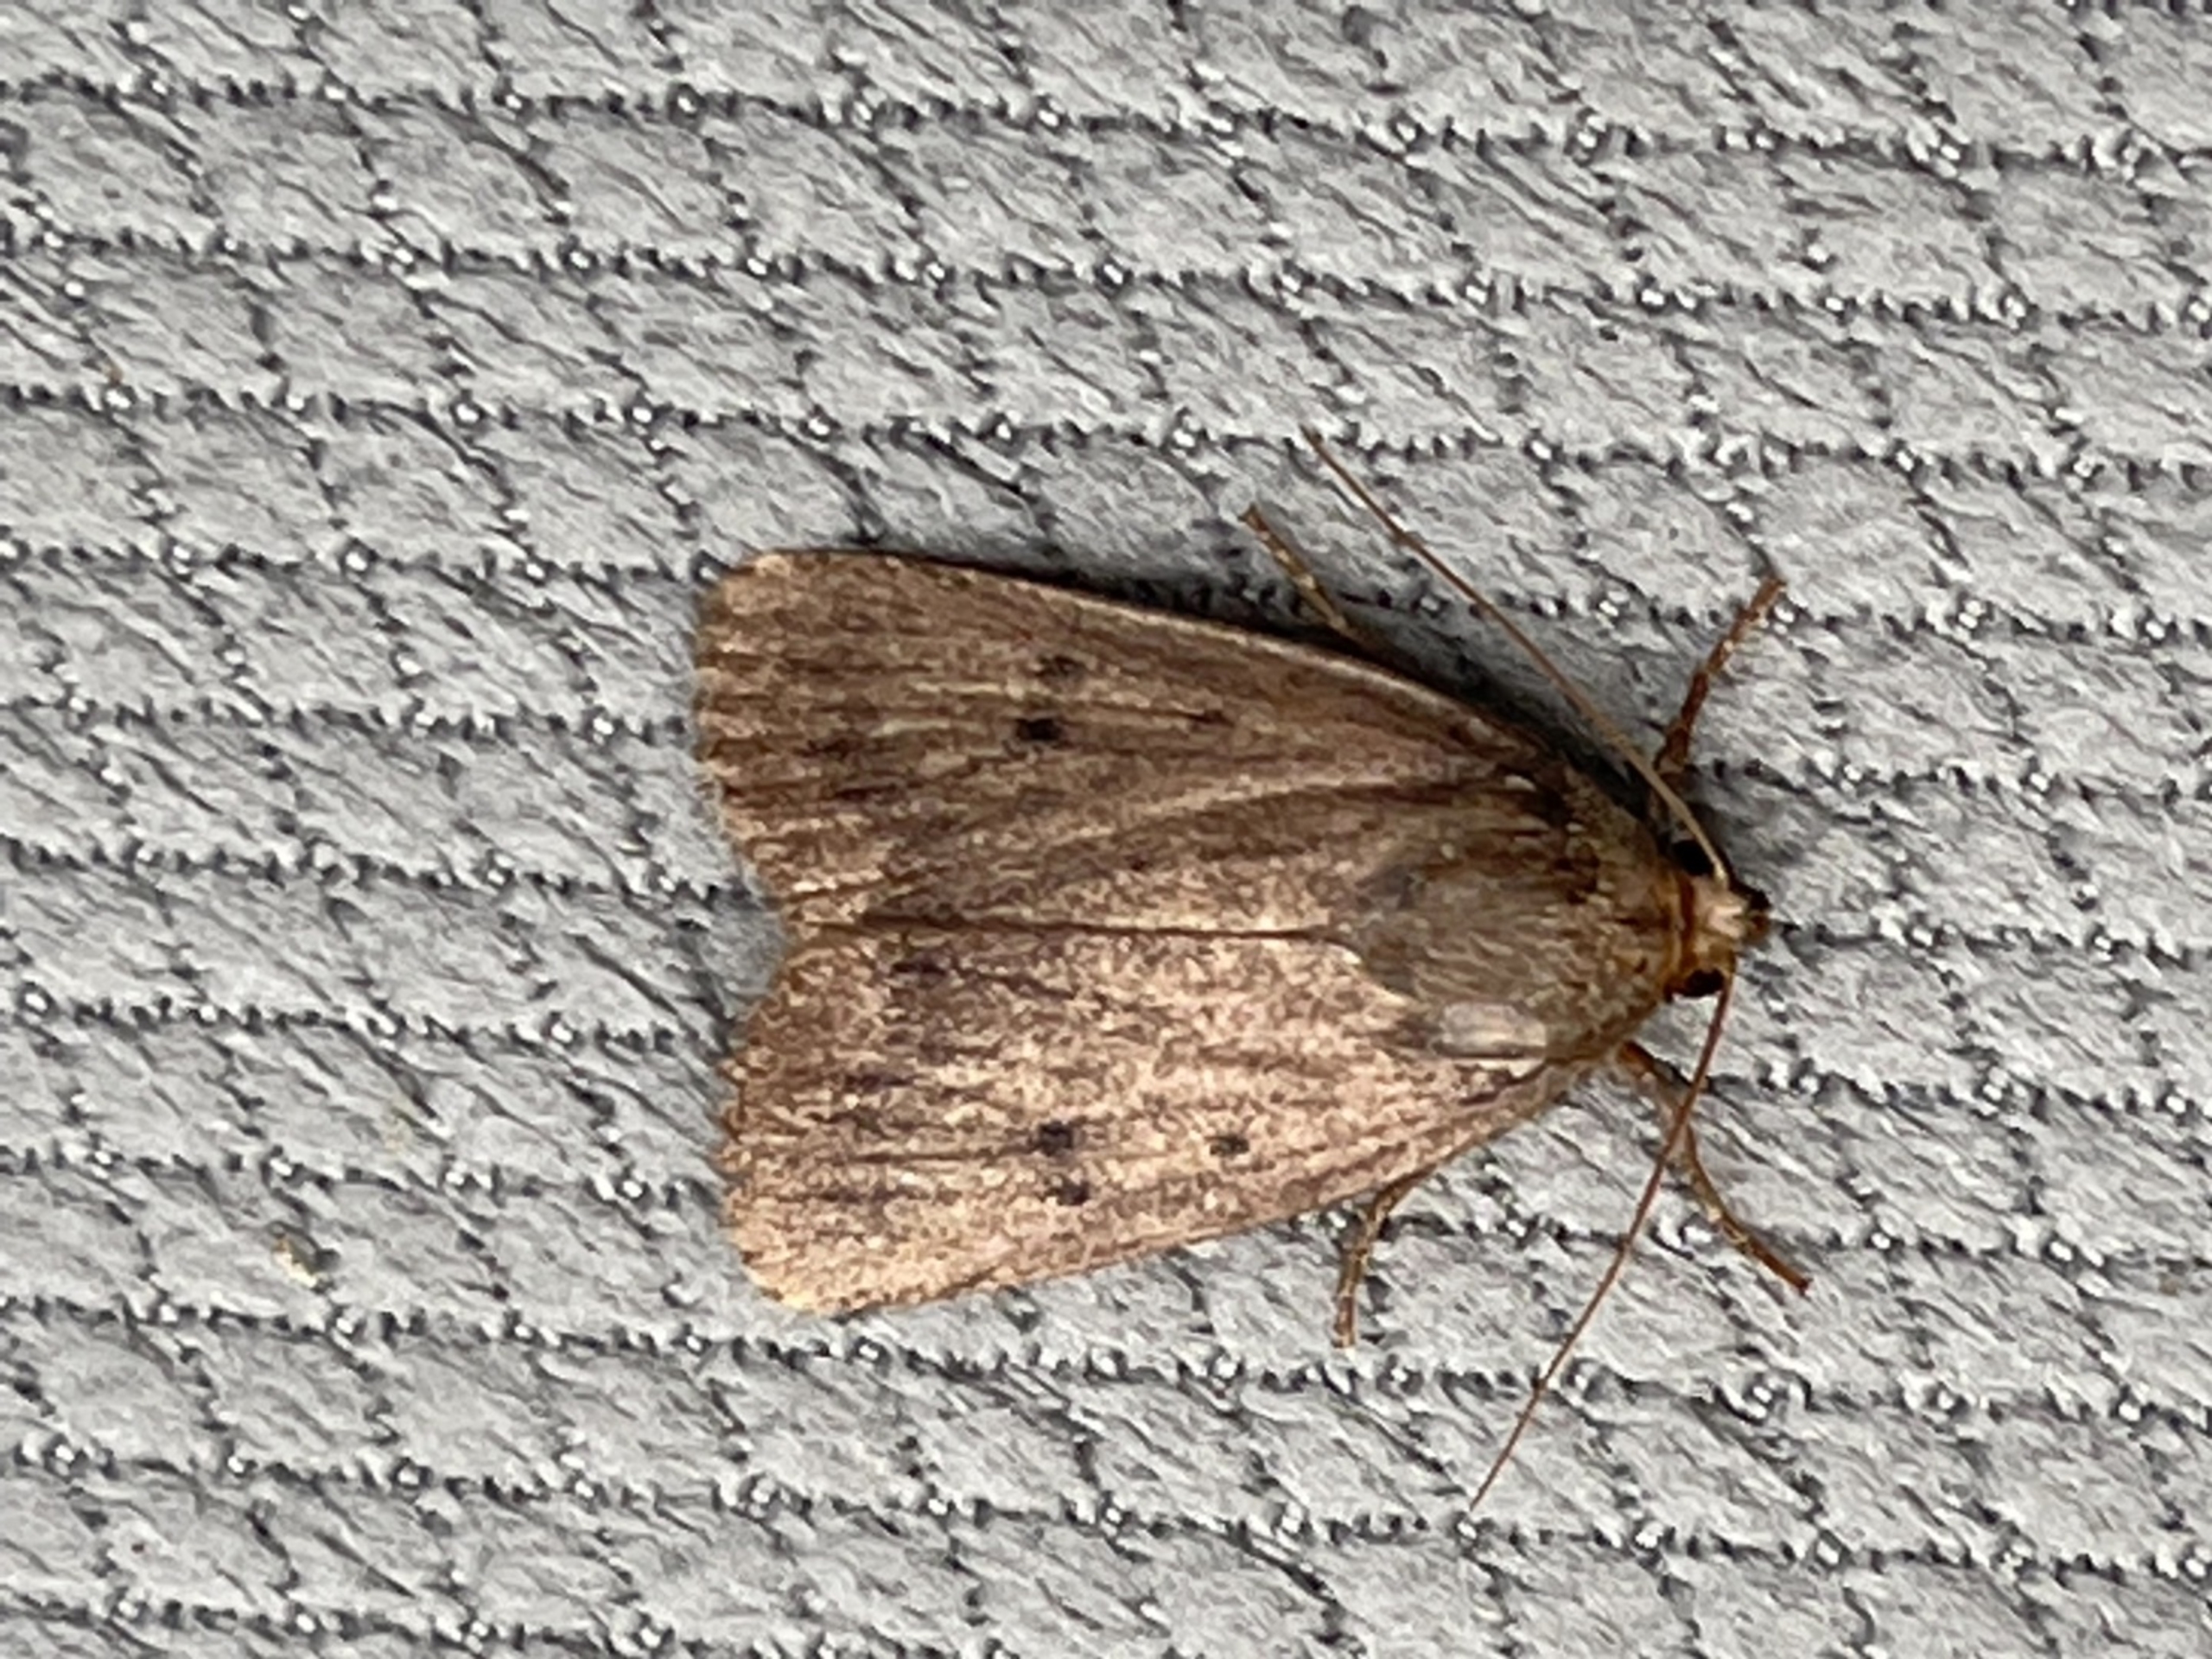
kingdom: Animalia
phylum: Arthropoda
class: Insecta
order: Lepidoptera
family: Noctuidae
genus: Amphipyra
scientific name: Amphipyra tragopoginis
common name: Blyantsugle
